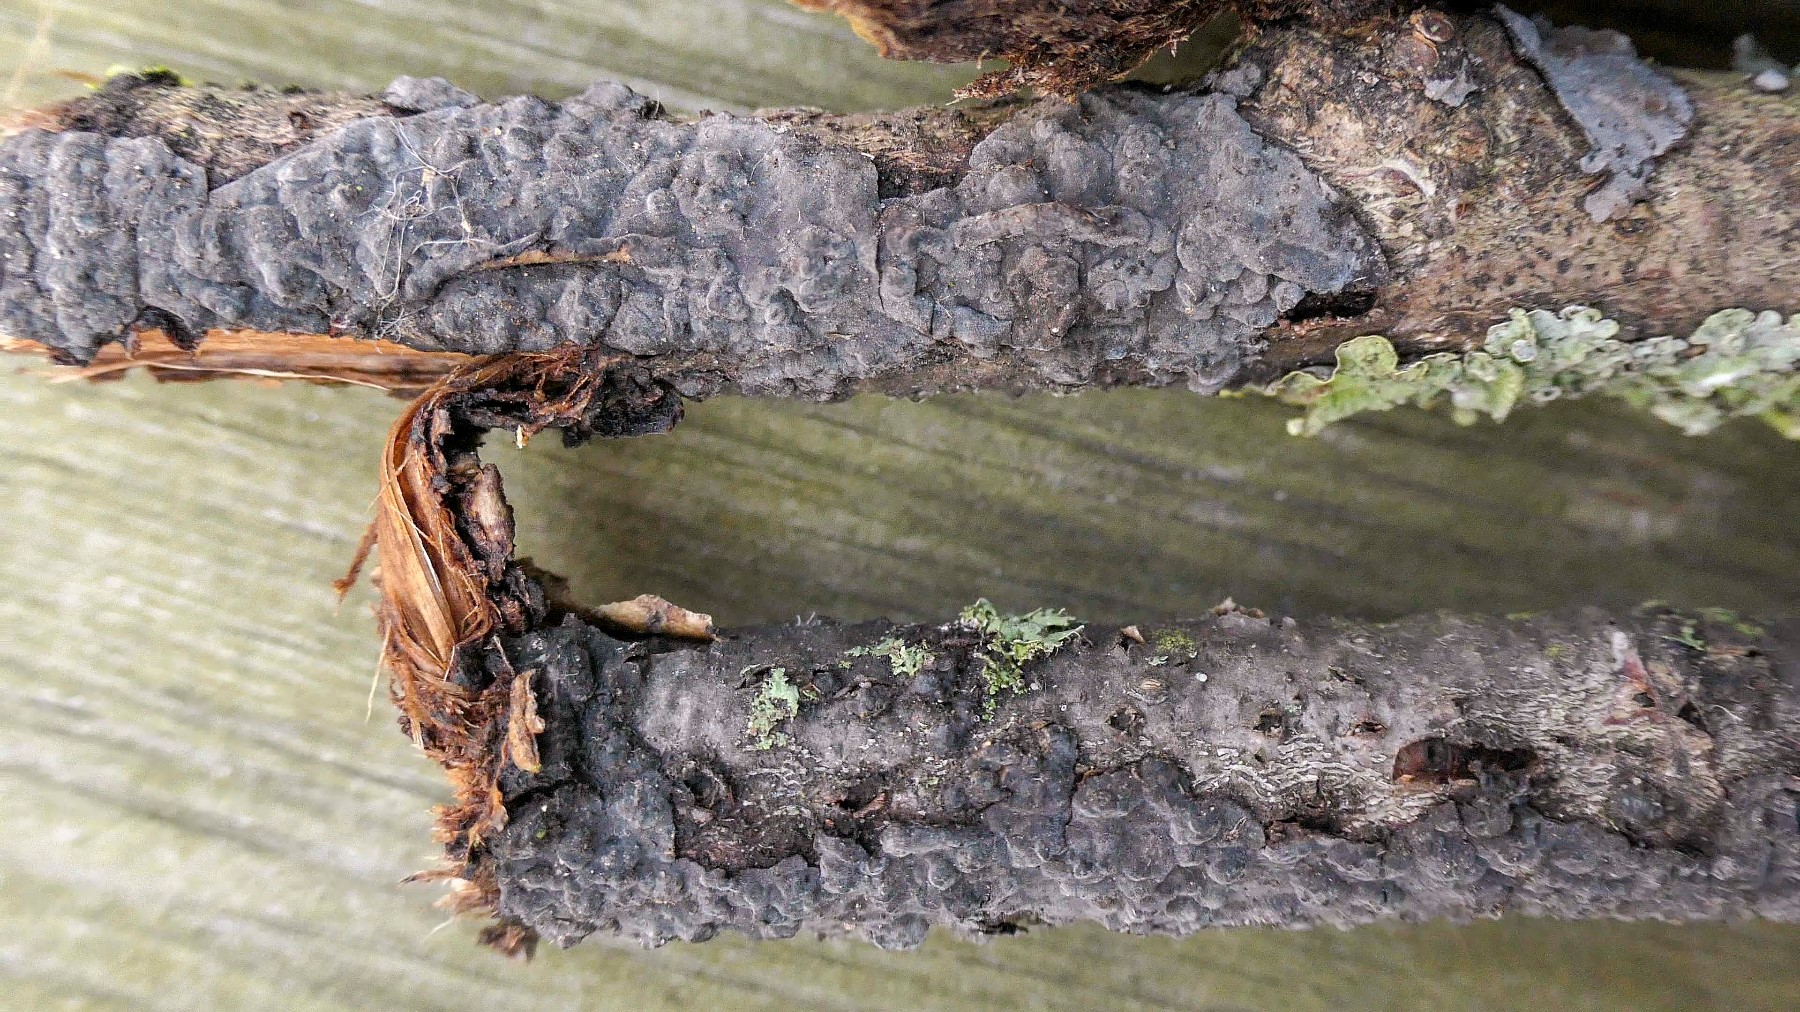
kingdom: Fungi
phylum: Basidiomycota
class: Agaricomycetes
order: Russulales
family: Peniophoraceae
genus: Peniophora
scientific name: Peniophora rufomarginata
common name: linde-voksskind
